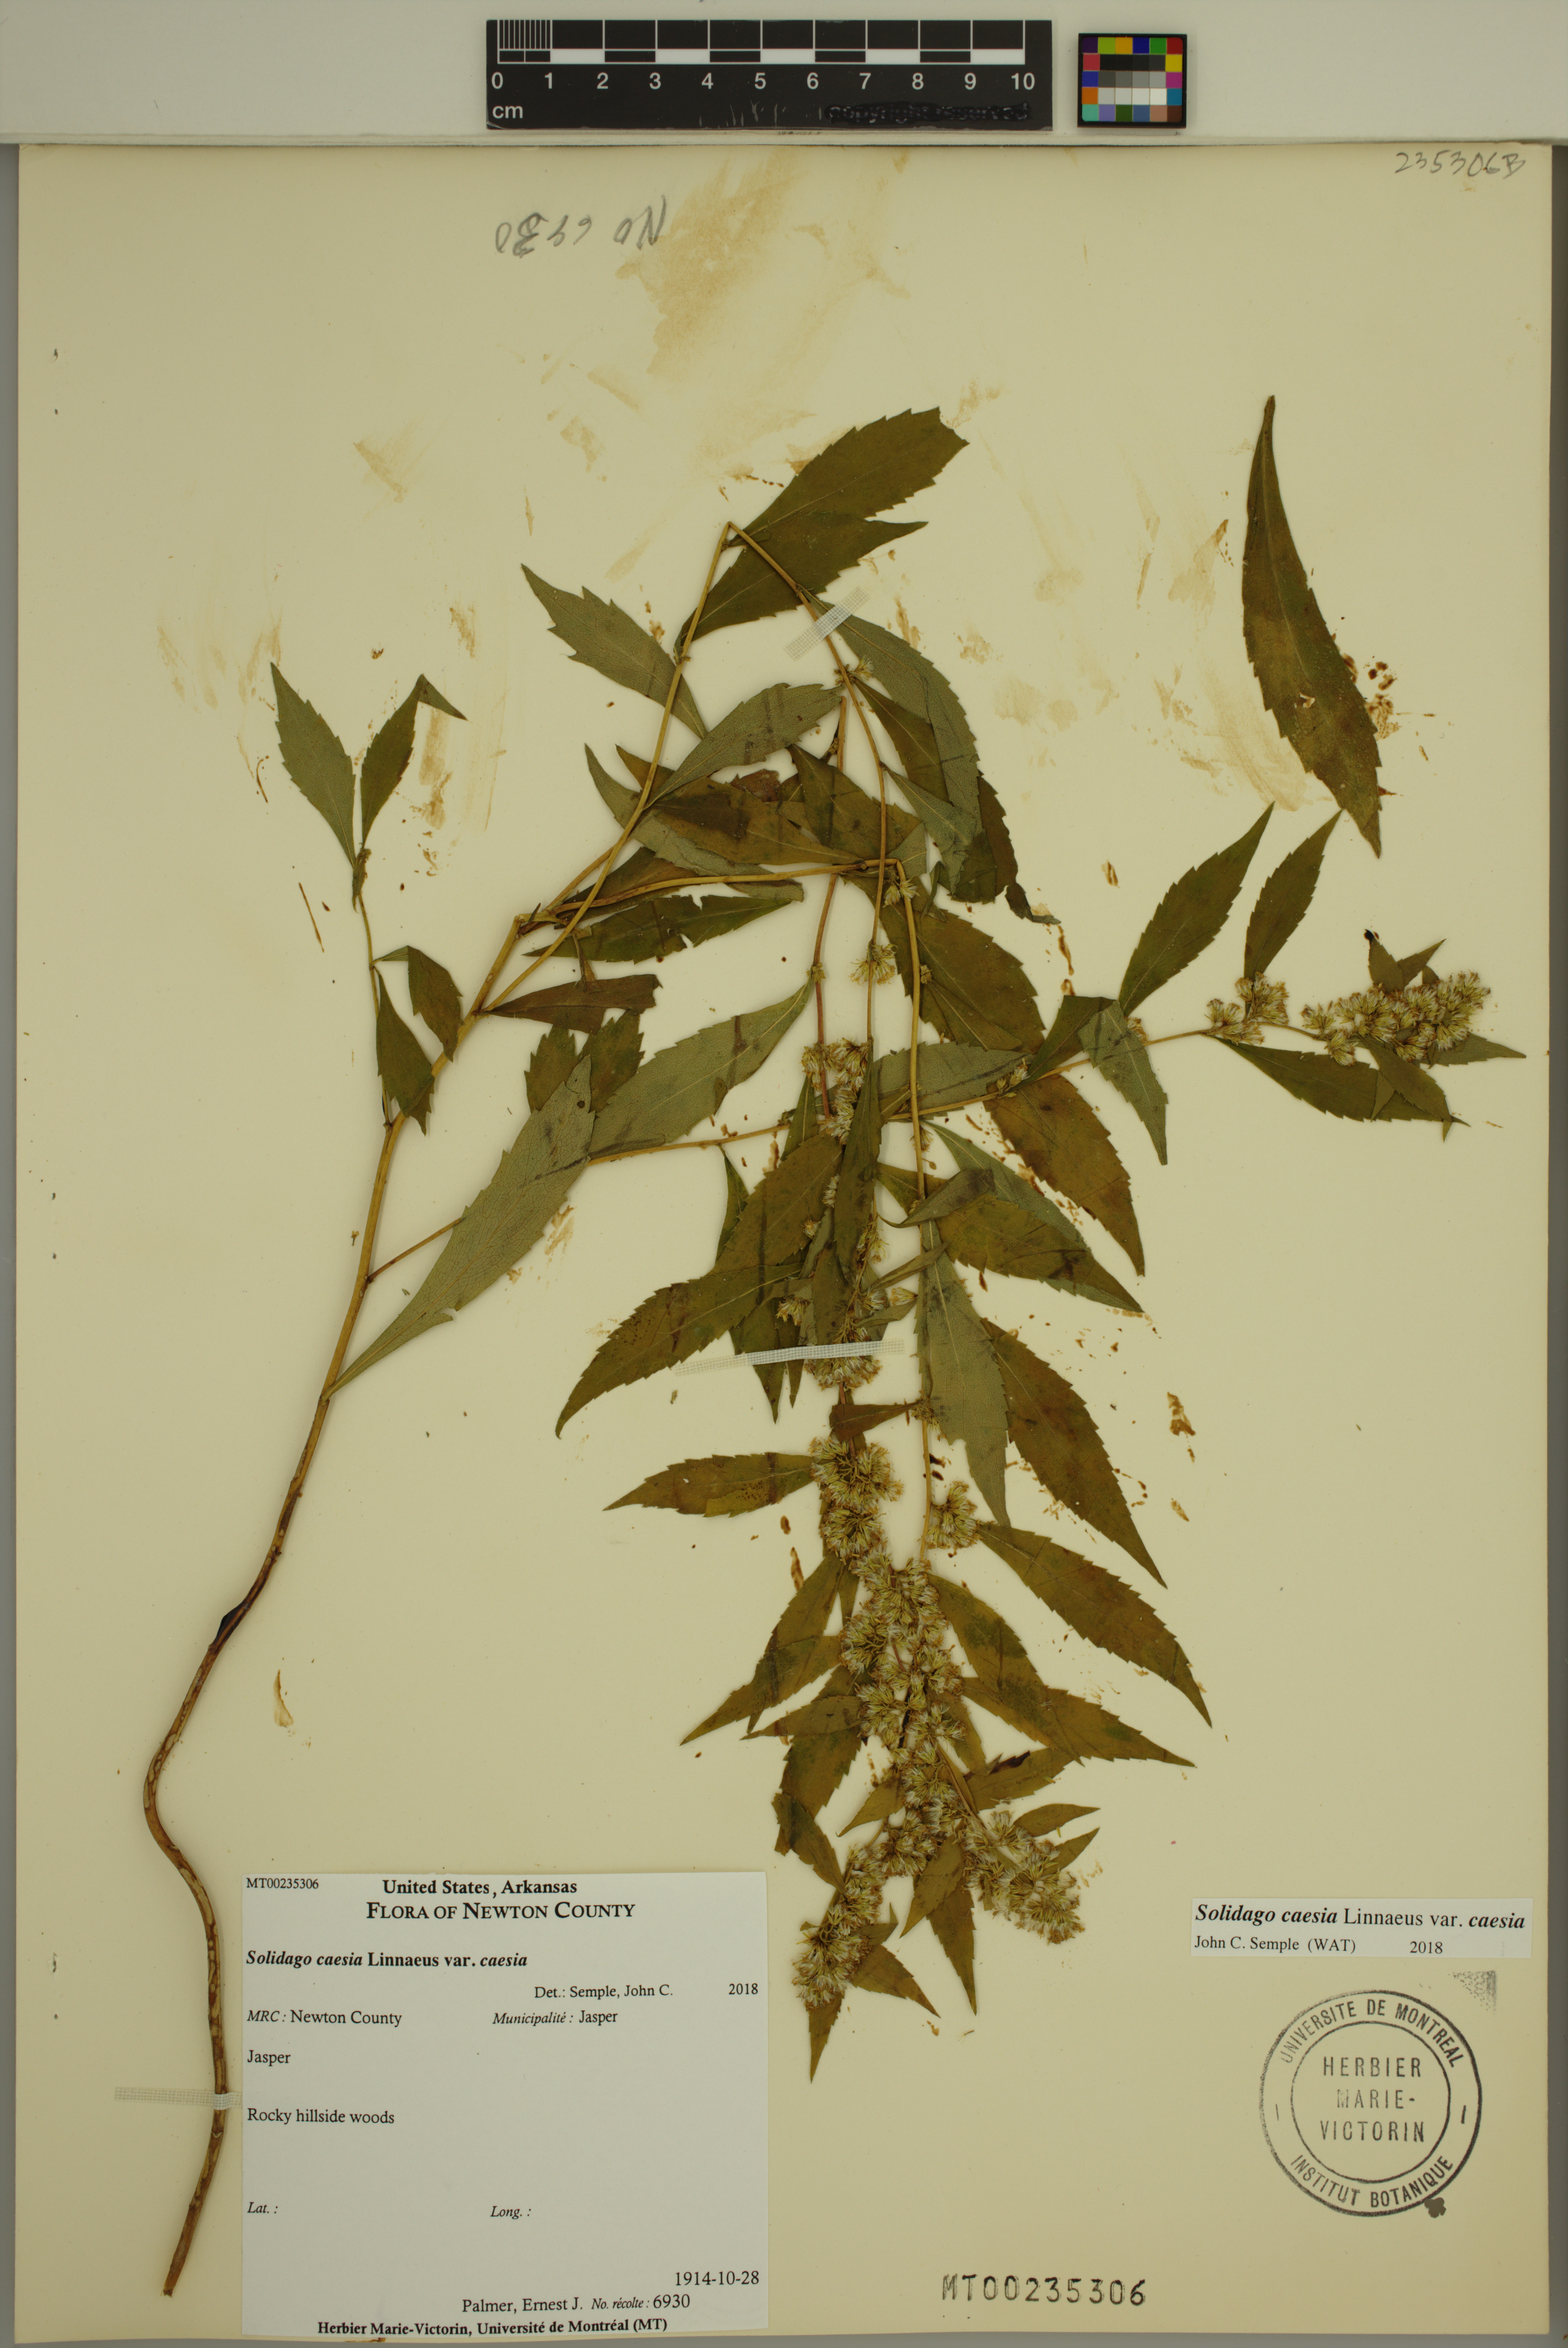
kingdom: Plantae
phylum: Tracheophyta
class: Magnoliopsida
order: Asterales
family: Asteraceae
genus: Solidago
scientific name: Solidago caesia
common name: Woodland goldenrod
